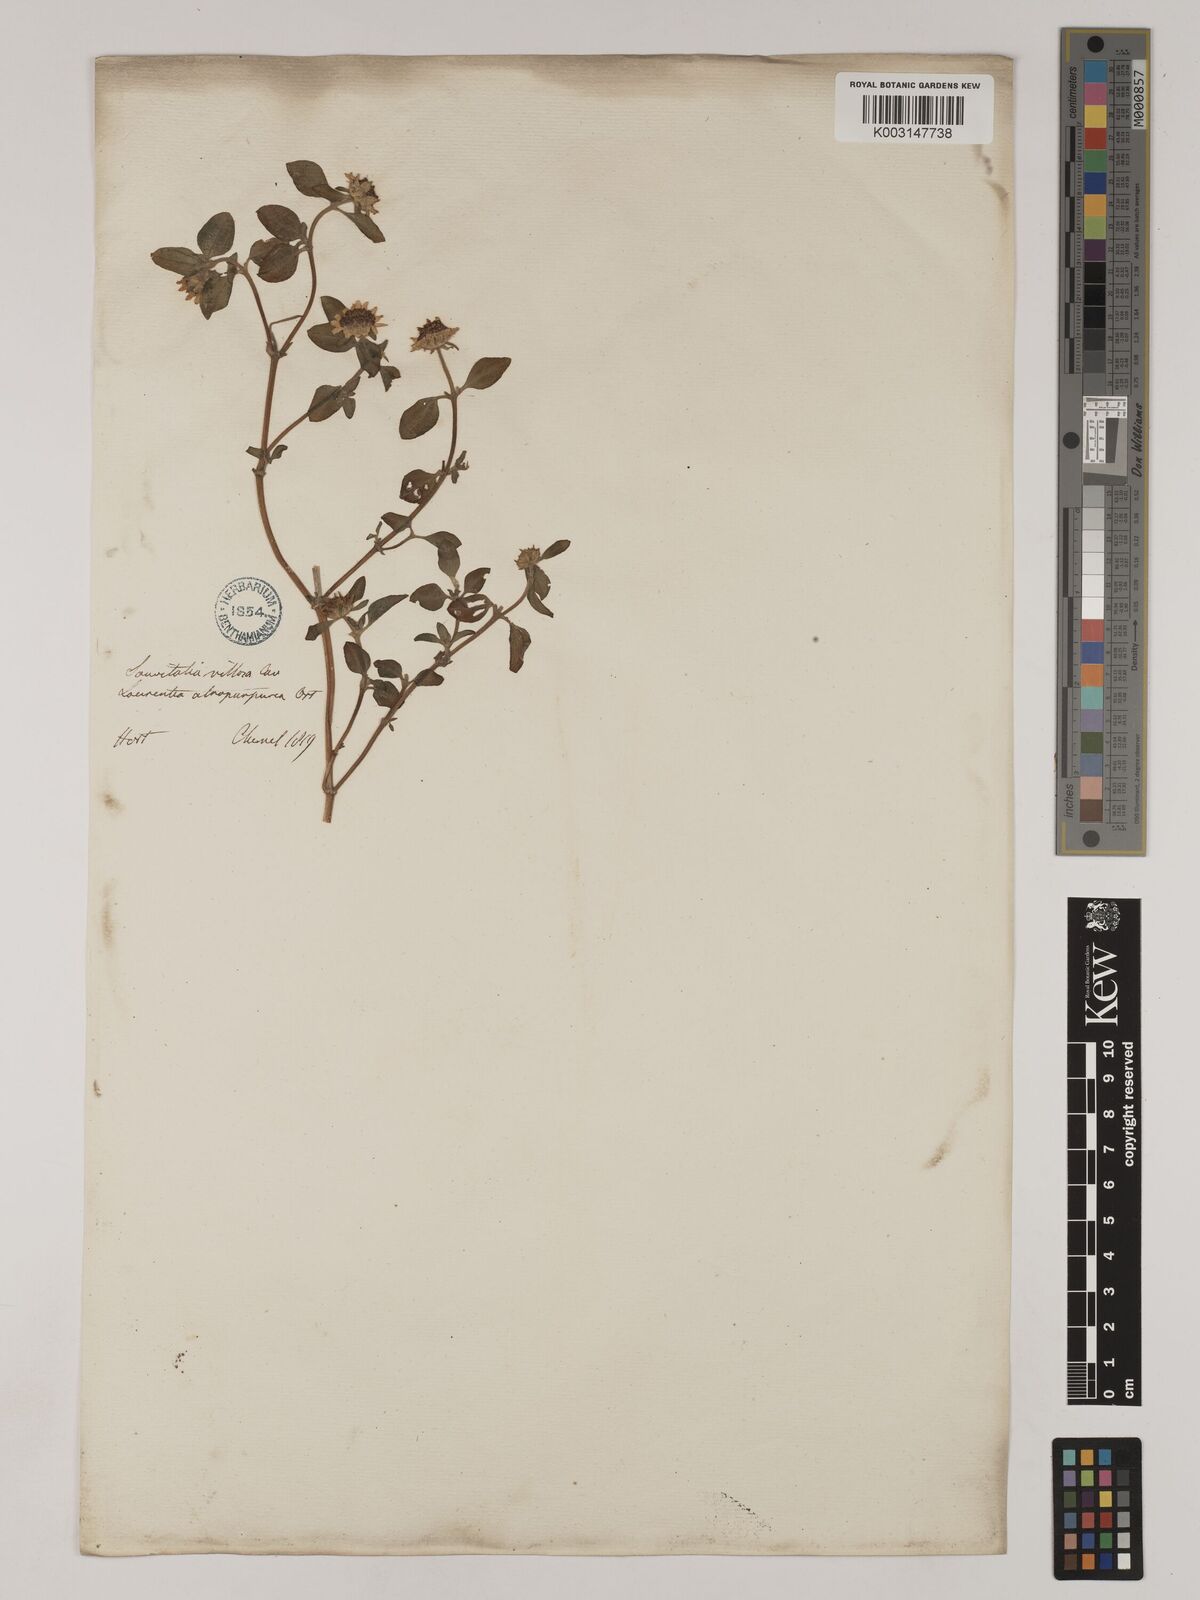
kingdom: Plantae
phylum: Tracheophyta
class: Magnoliopsida
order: Asterales
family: Asteraceae
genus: Sanvitalia
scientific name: Sanvitalia procumbens
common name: Mexican creeping zinnia
